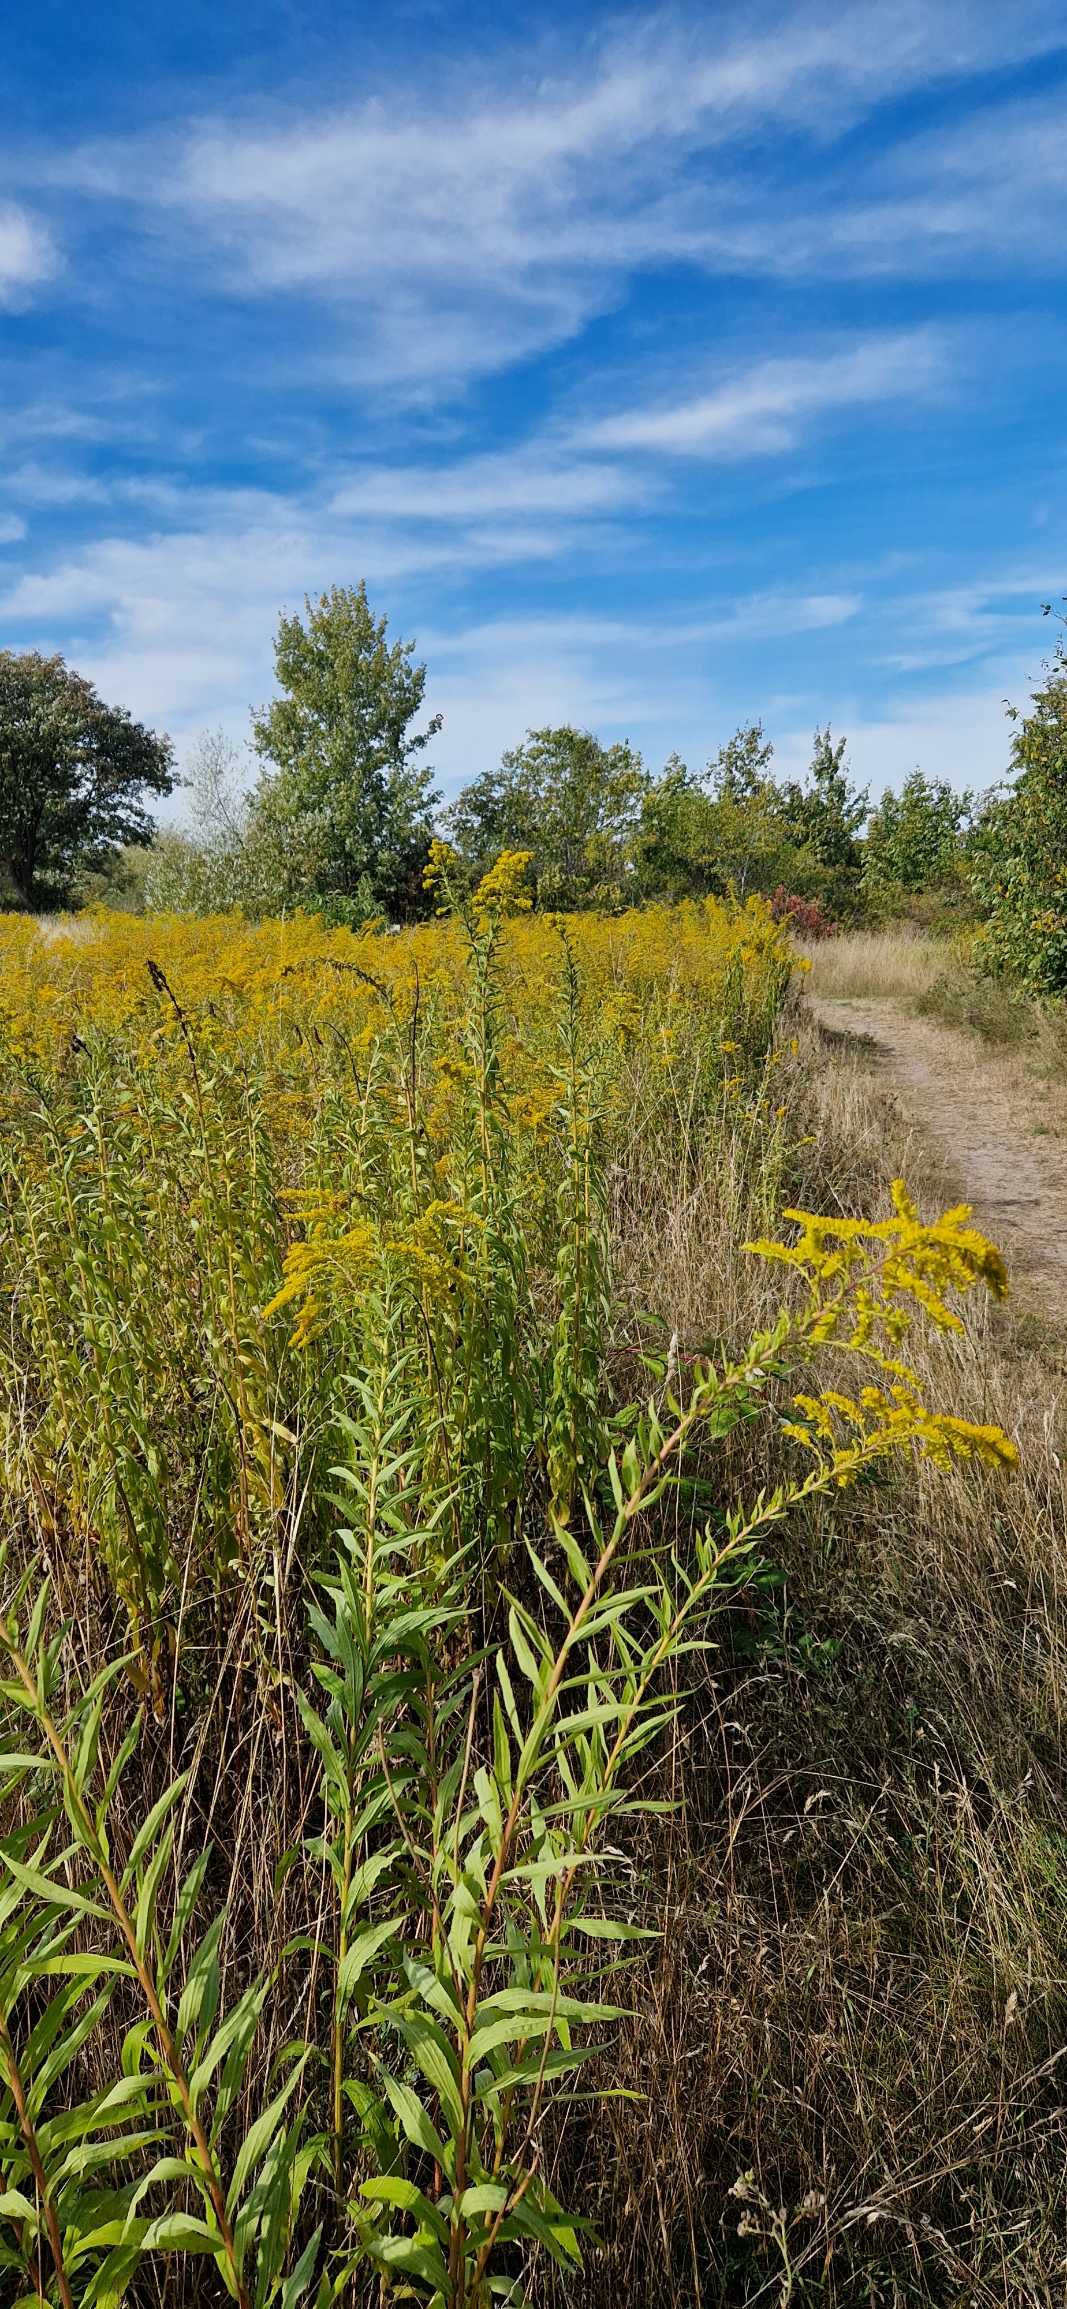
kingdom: Plantae
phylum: Tracheophyta
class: Magnoliopsida
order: Asterales
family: Asteraceae
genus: Solidago
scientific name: Solidago canadensis
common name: Kanadisk gyldenris
